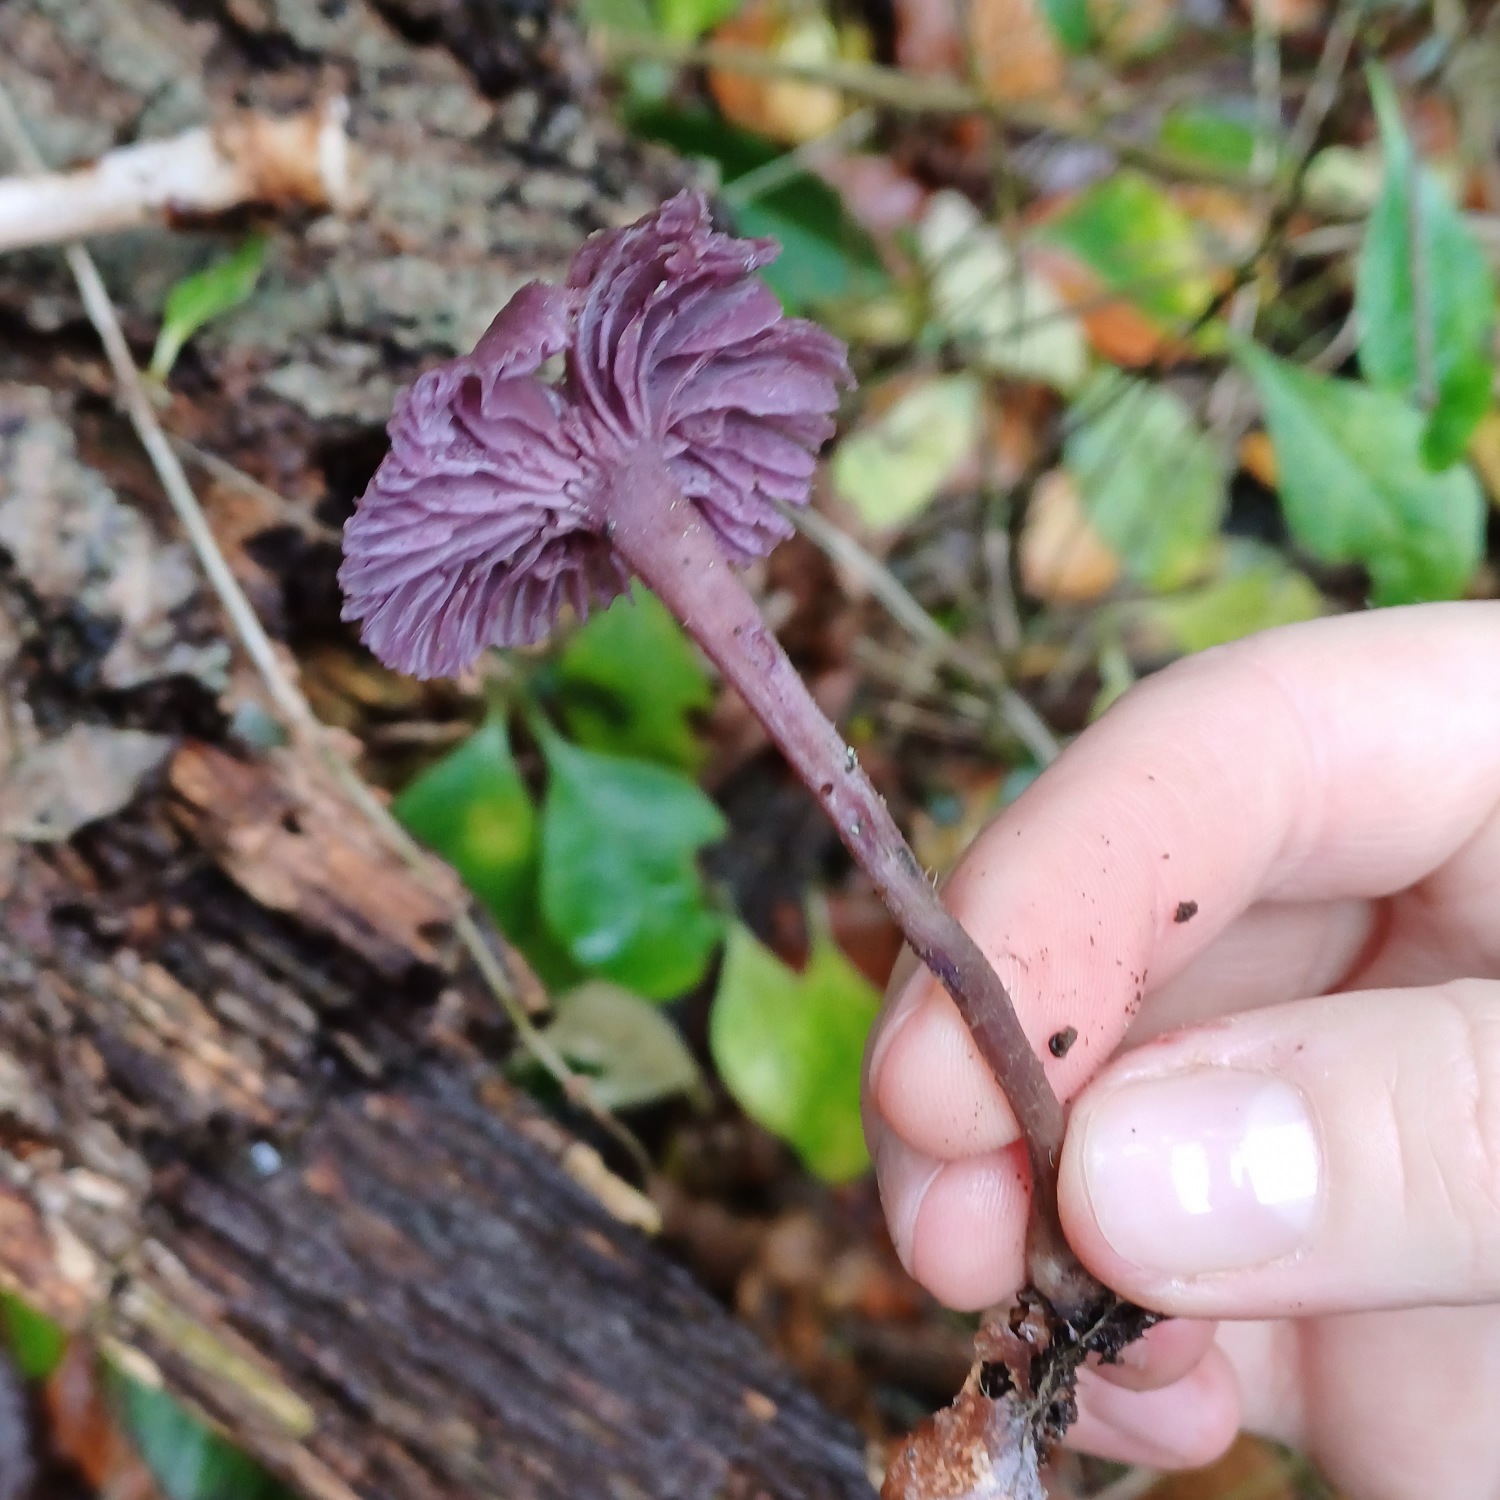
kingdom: Fungi
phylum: Basidiomycota
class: Agaricomycetes
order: Agaricales
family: Hydnangiaceae
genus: Laccaria
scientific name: Laccaria amethystina
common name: Violet ametysthat
